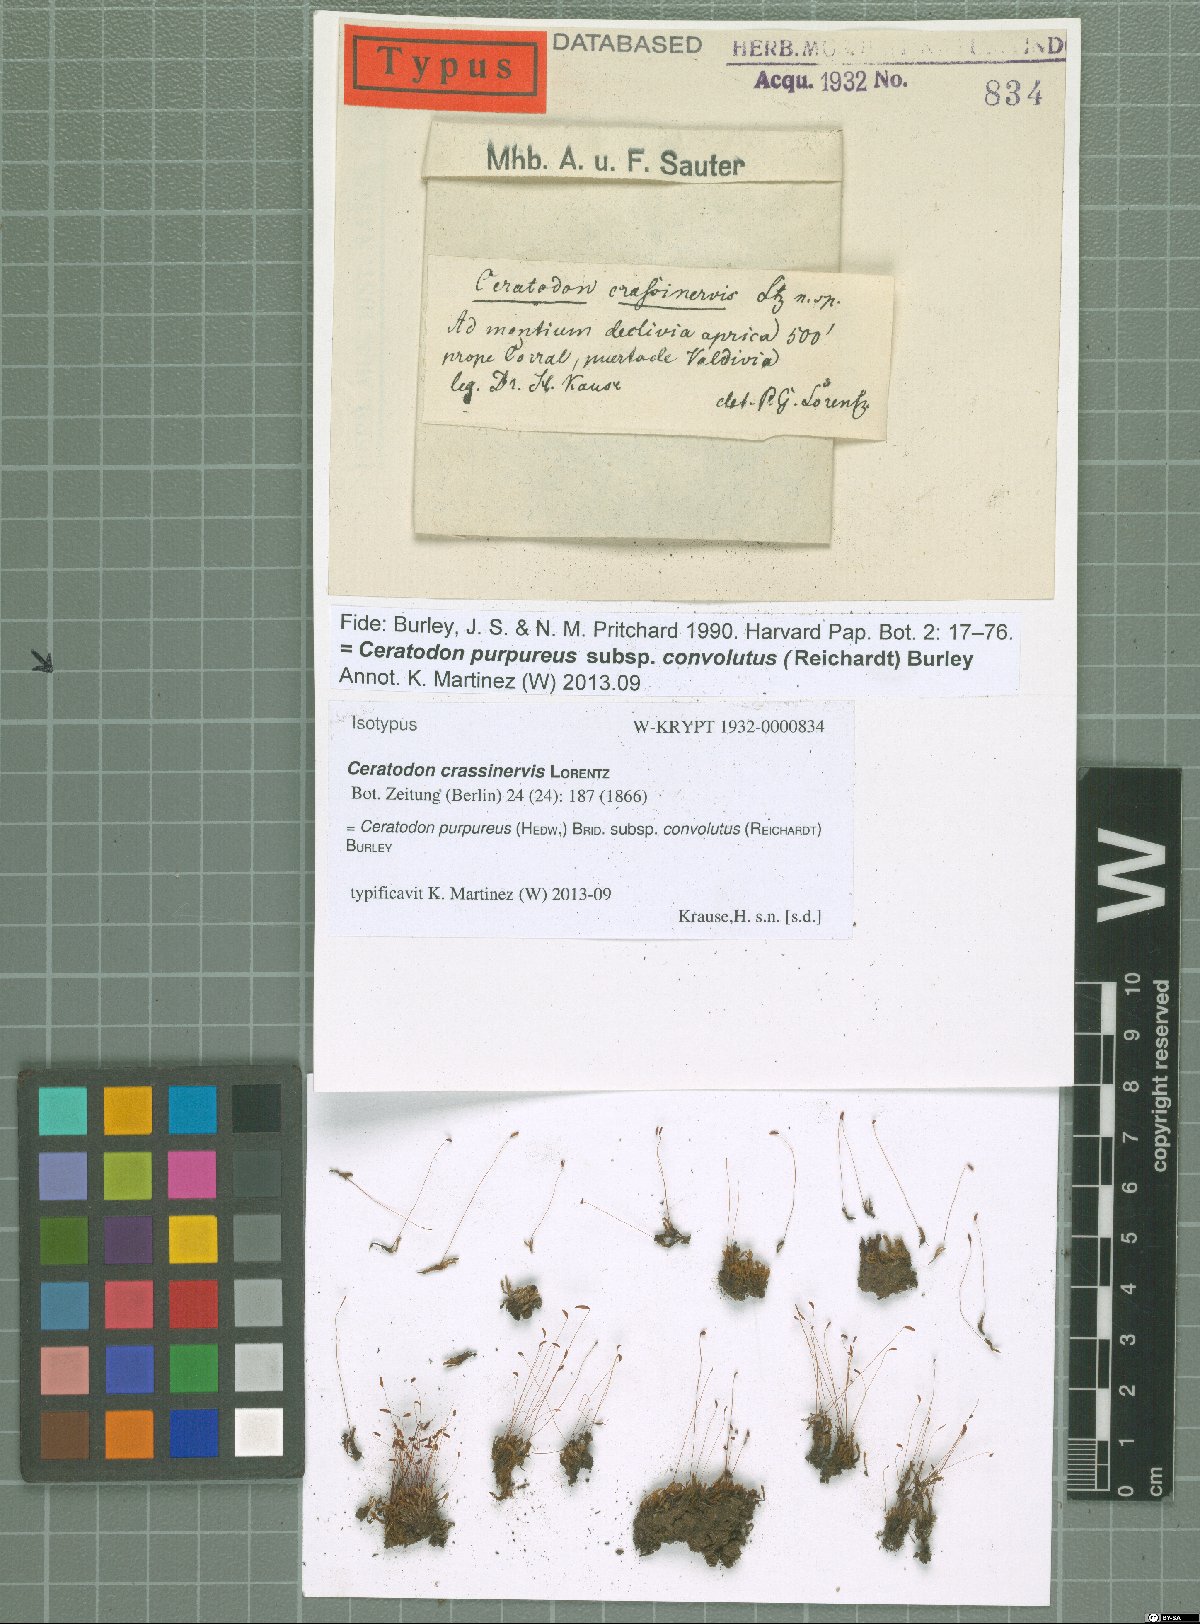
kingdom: Plantae
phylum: Bryophyta
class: Bryopsida
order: Dicranales
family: Ditrichaceae
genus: Ceratodon
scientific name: Ceratodon purpureus
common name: Redshank
